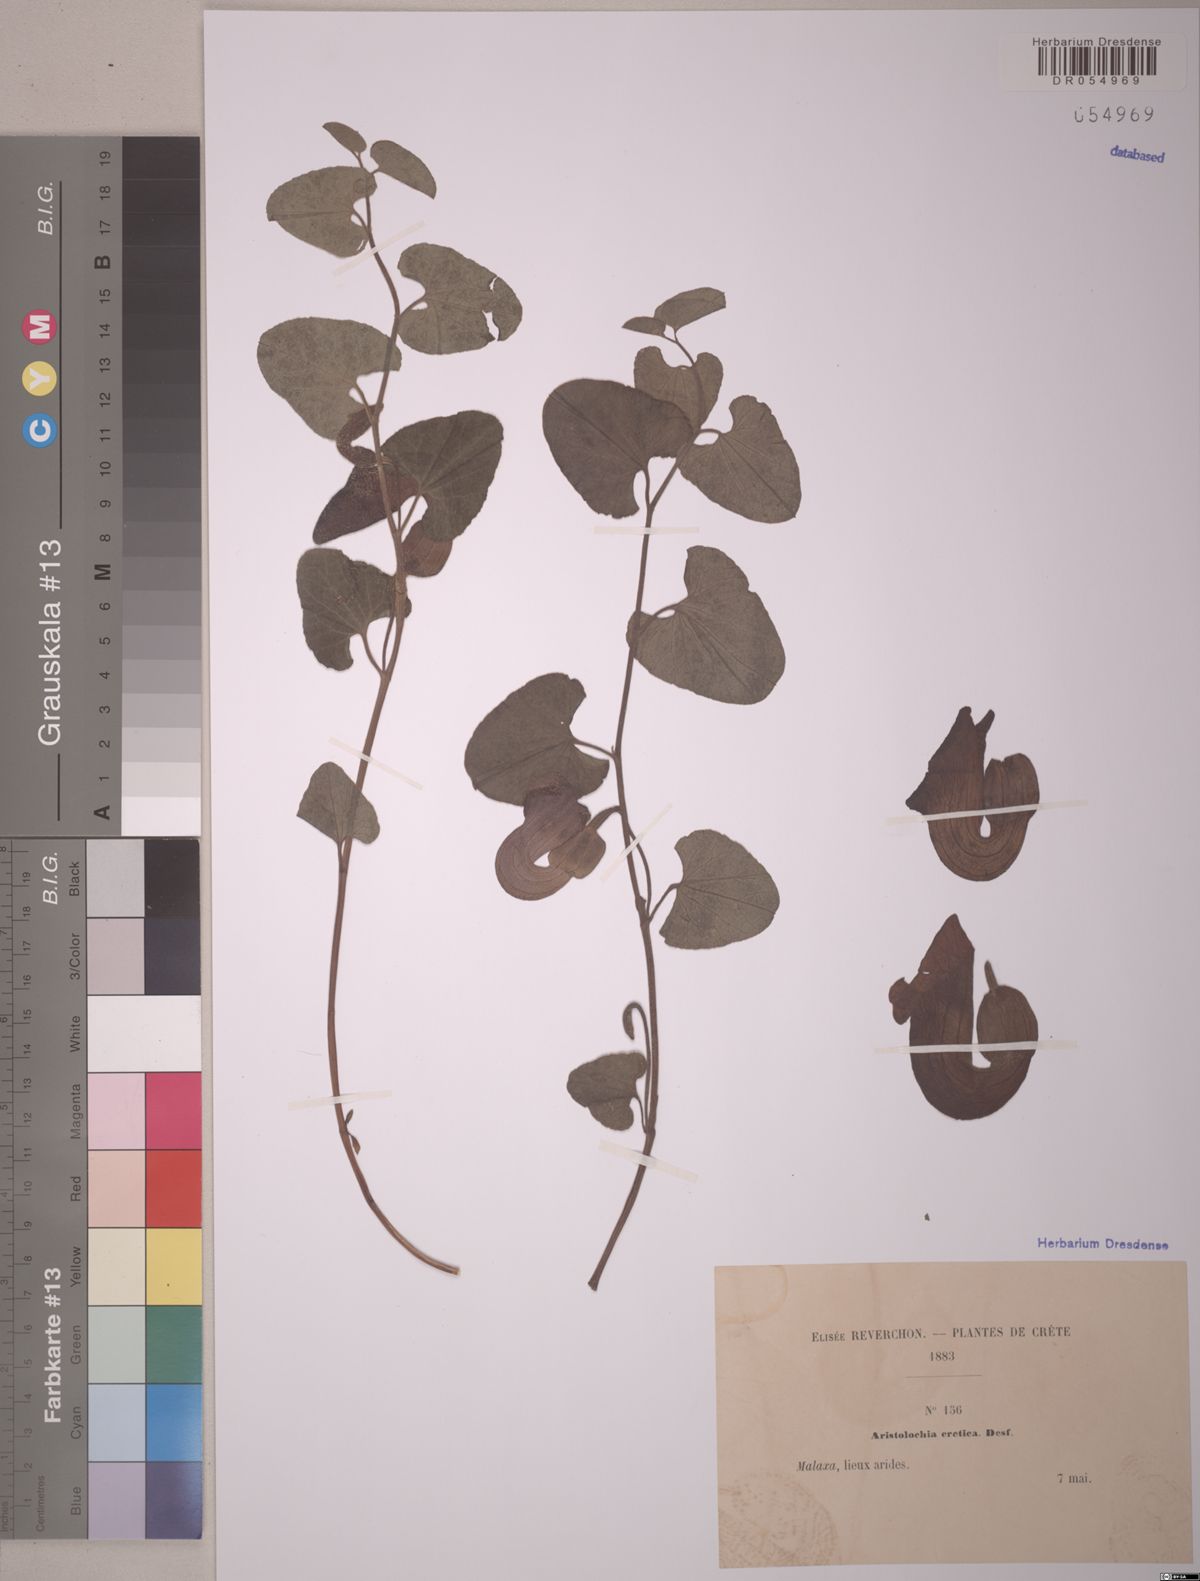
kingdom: Plantae
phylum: Tracheophyta
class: Magnoliopsida
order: Piperales
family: Aristolochiaceae
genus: Aristolochia
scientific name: Aristolochia cretica
